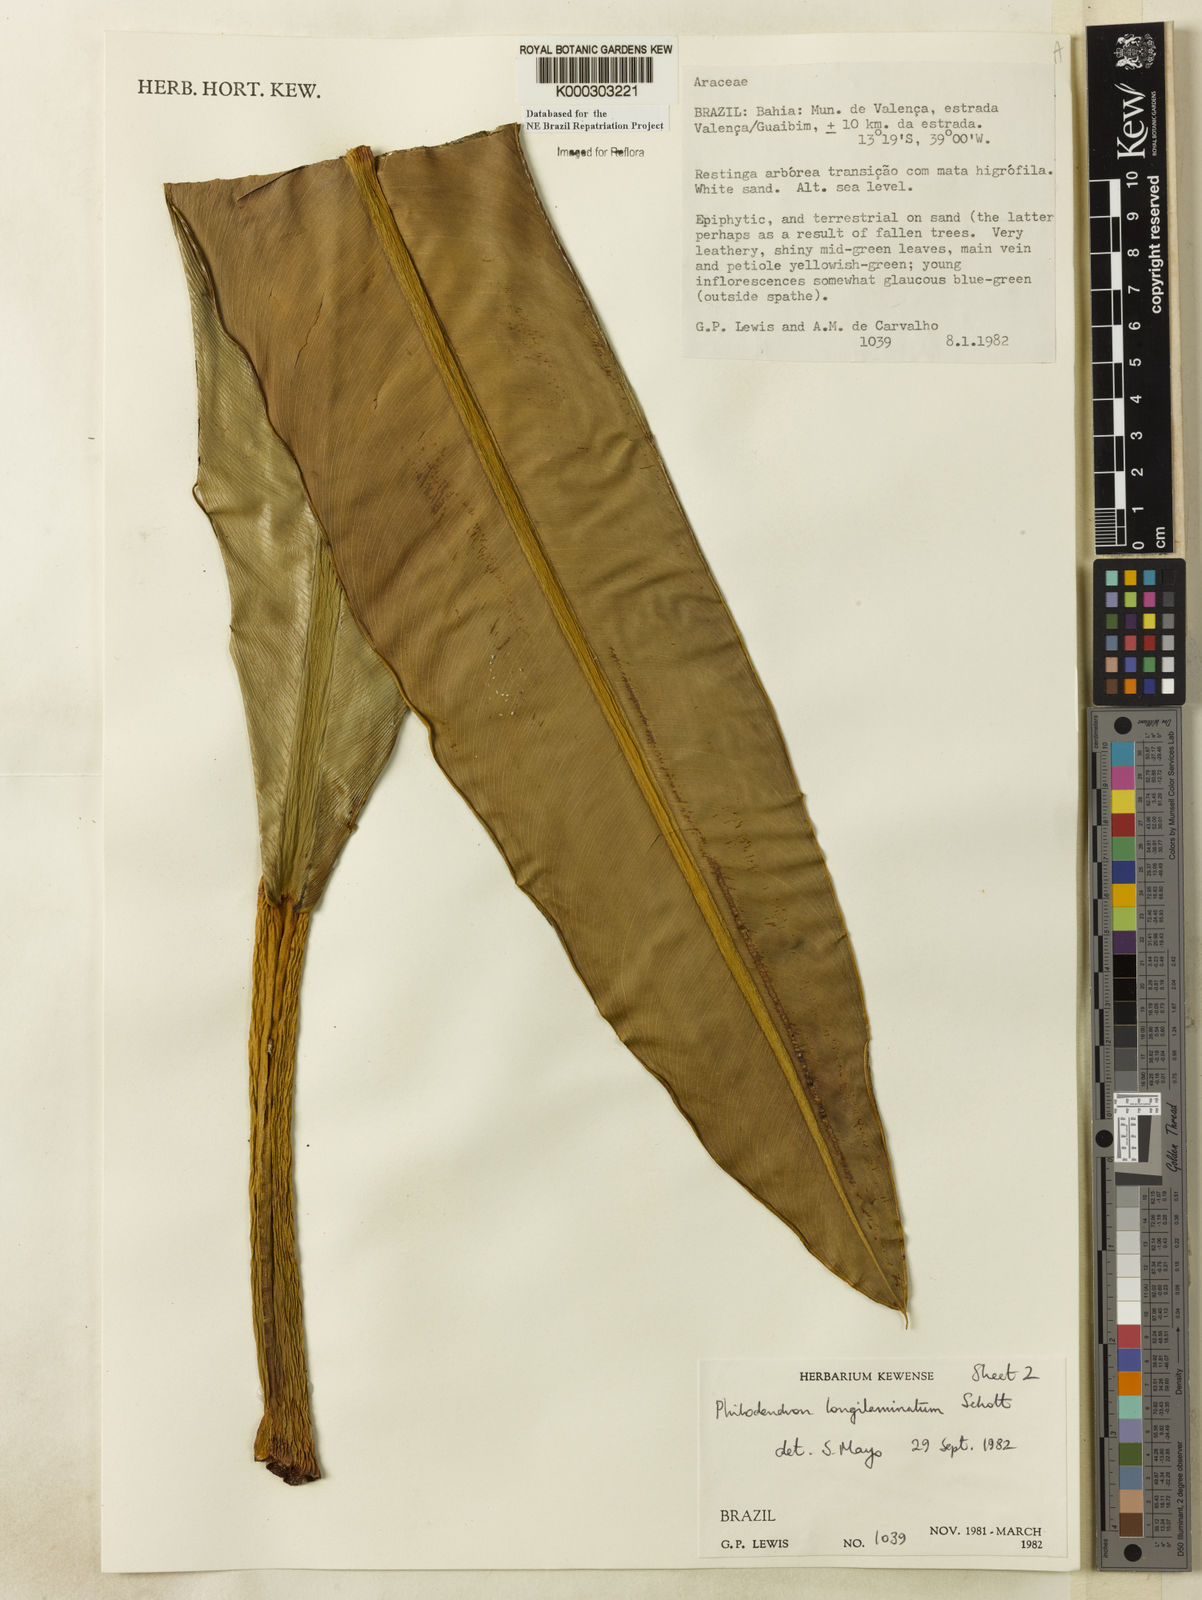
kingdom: Plantae
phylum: Tracheophyta
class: Liliopsida
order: Alismatales
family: Araceae
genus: Philodendron
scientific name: Philodendron longilaminatum
